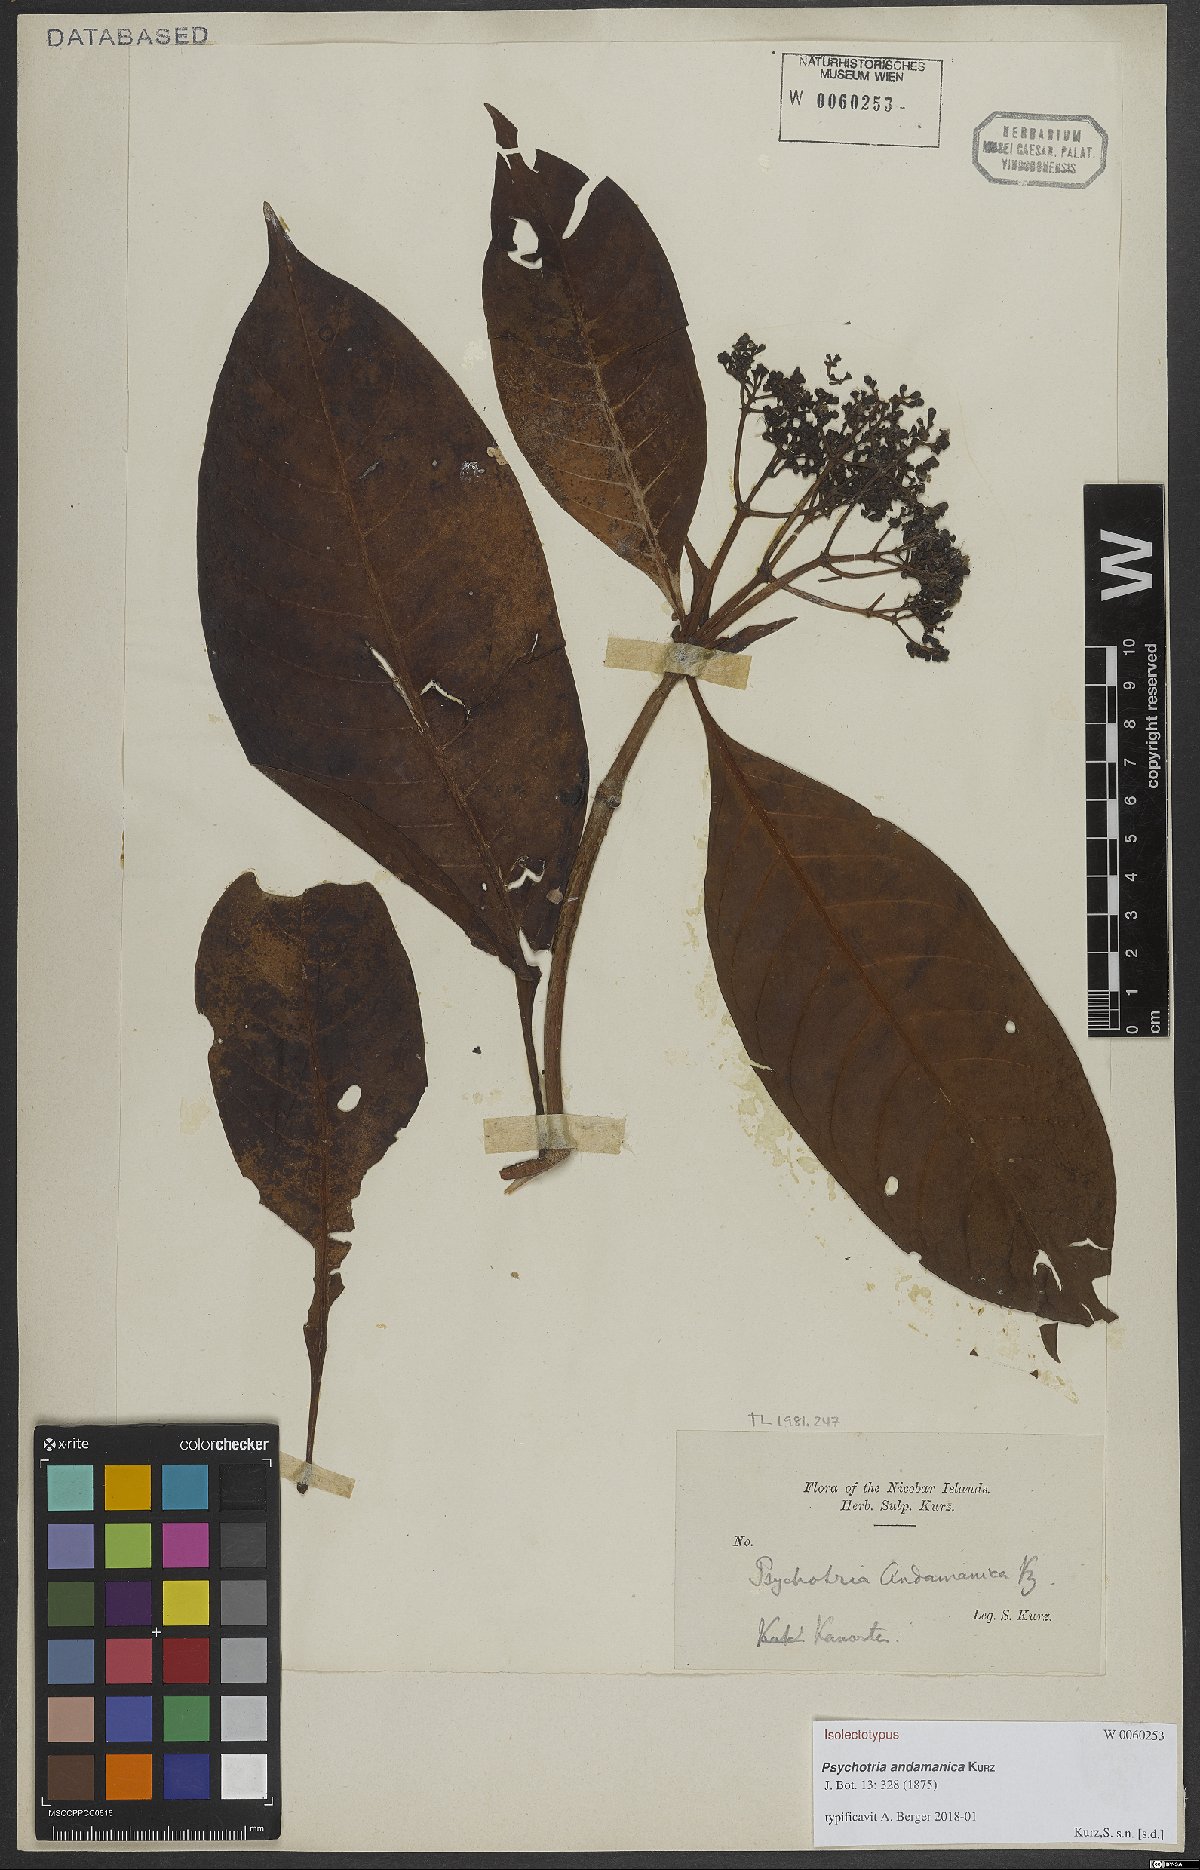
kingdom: Plantae
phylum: Tracheophyta
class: Magnoliopsida
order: Gentianales
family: Rubiaceae
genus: Psychotria
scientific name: Psychotria andamanica
